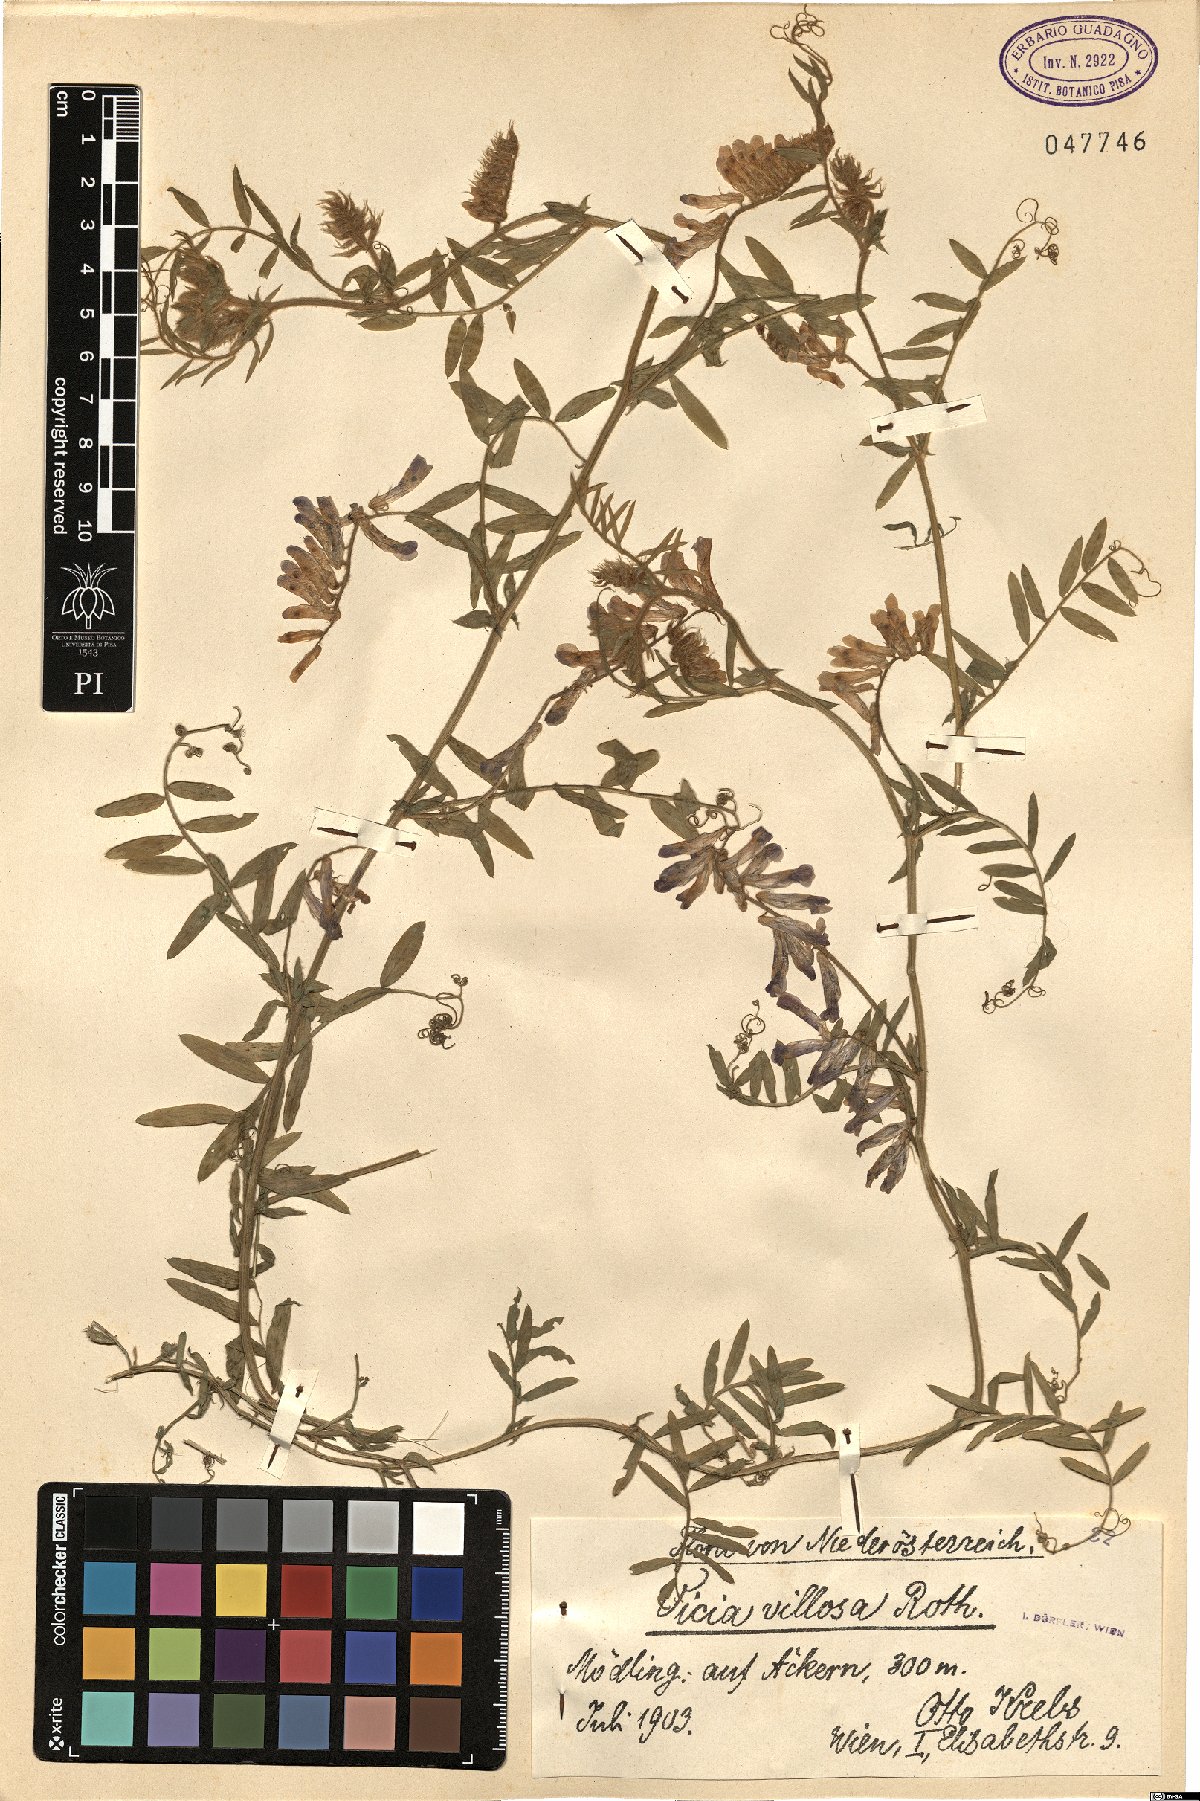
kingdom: Plantae
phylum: Tracheophyta
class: Magnoliopsida
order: Fabales
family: Fabaceae
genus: Vicia
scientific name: Vicia villosa
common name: Fodder vetch
